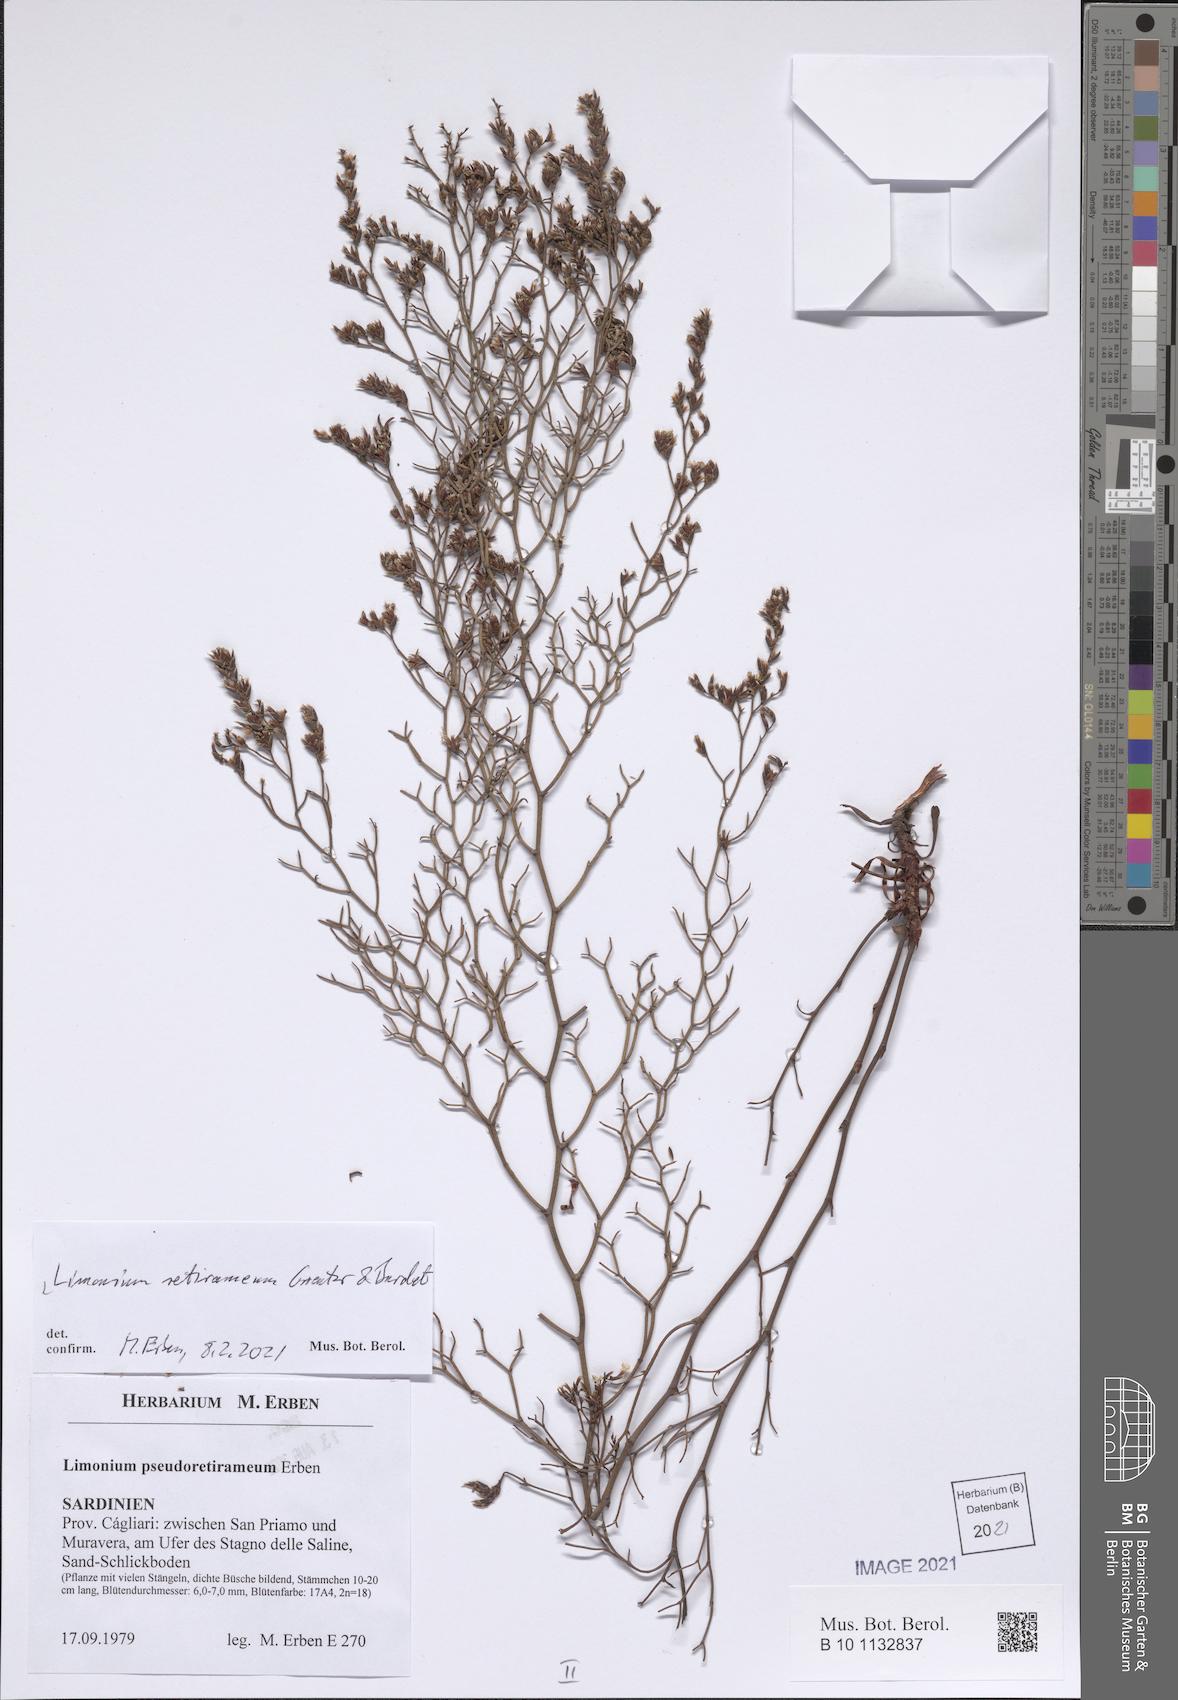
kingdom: Plantae
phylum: Tracheophyta
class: Magnoliopsida
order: Caryophyllales
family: Plumbaginaceae
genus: Limonium
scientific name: Limonium retirameum
